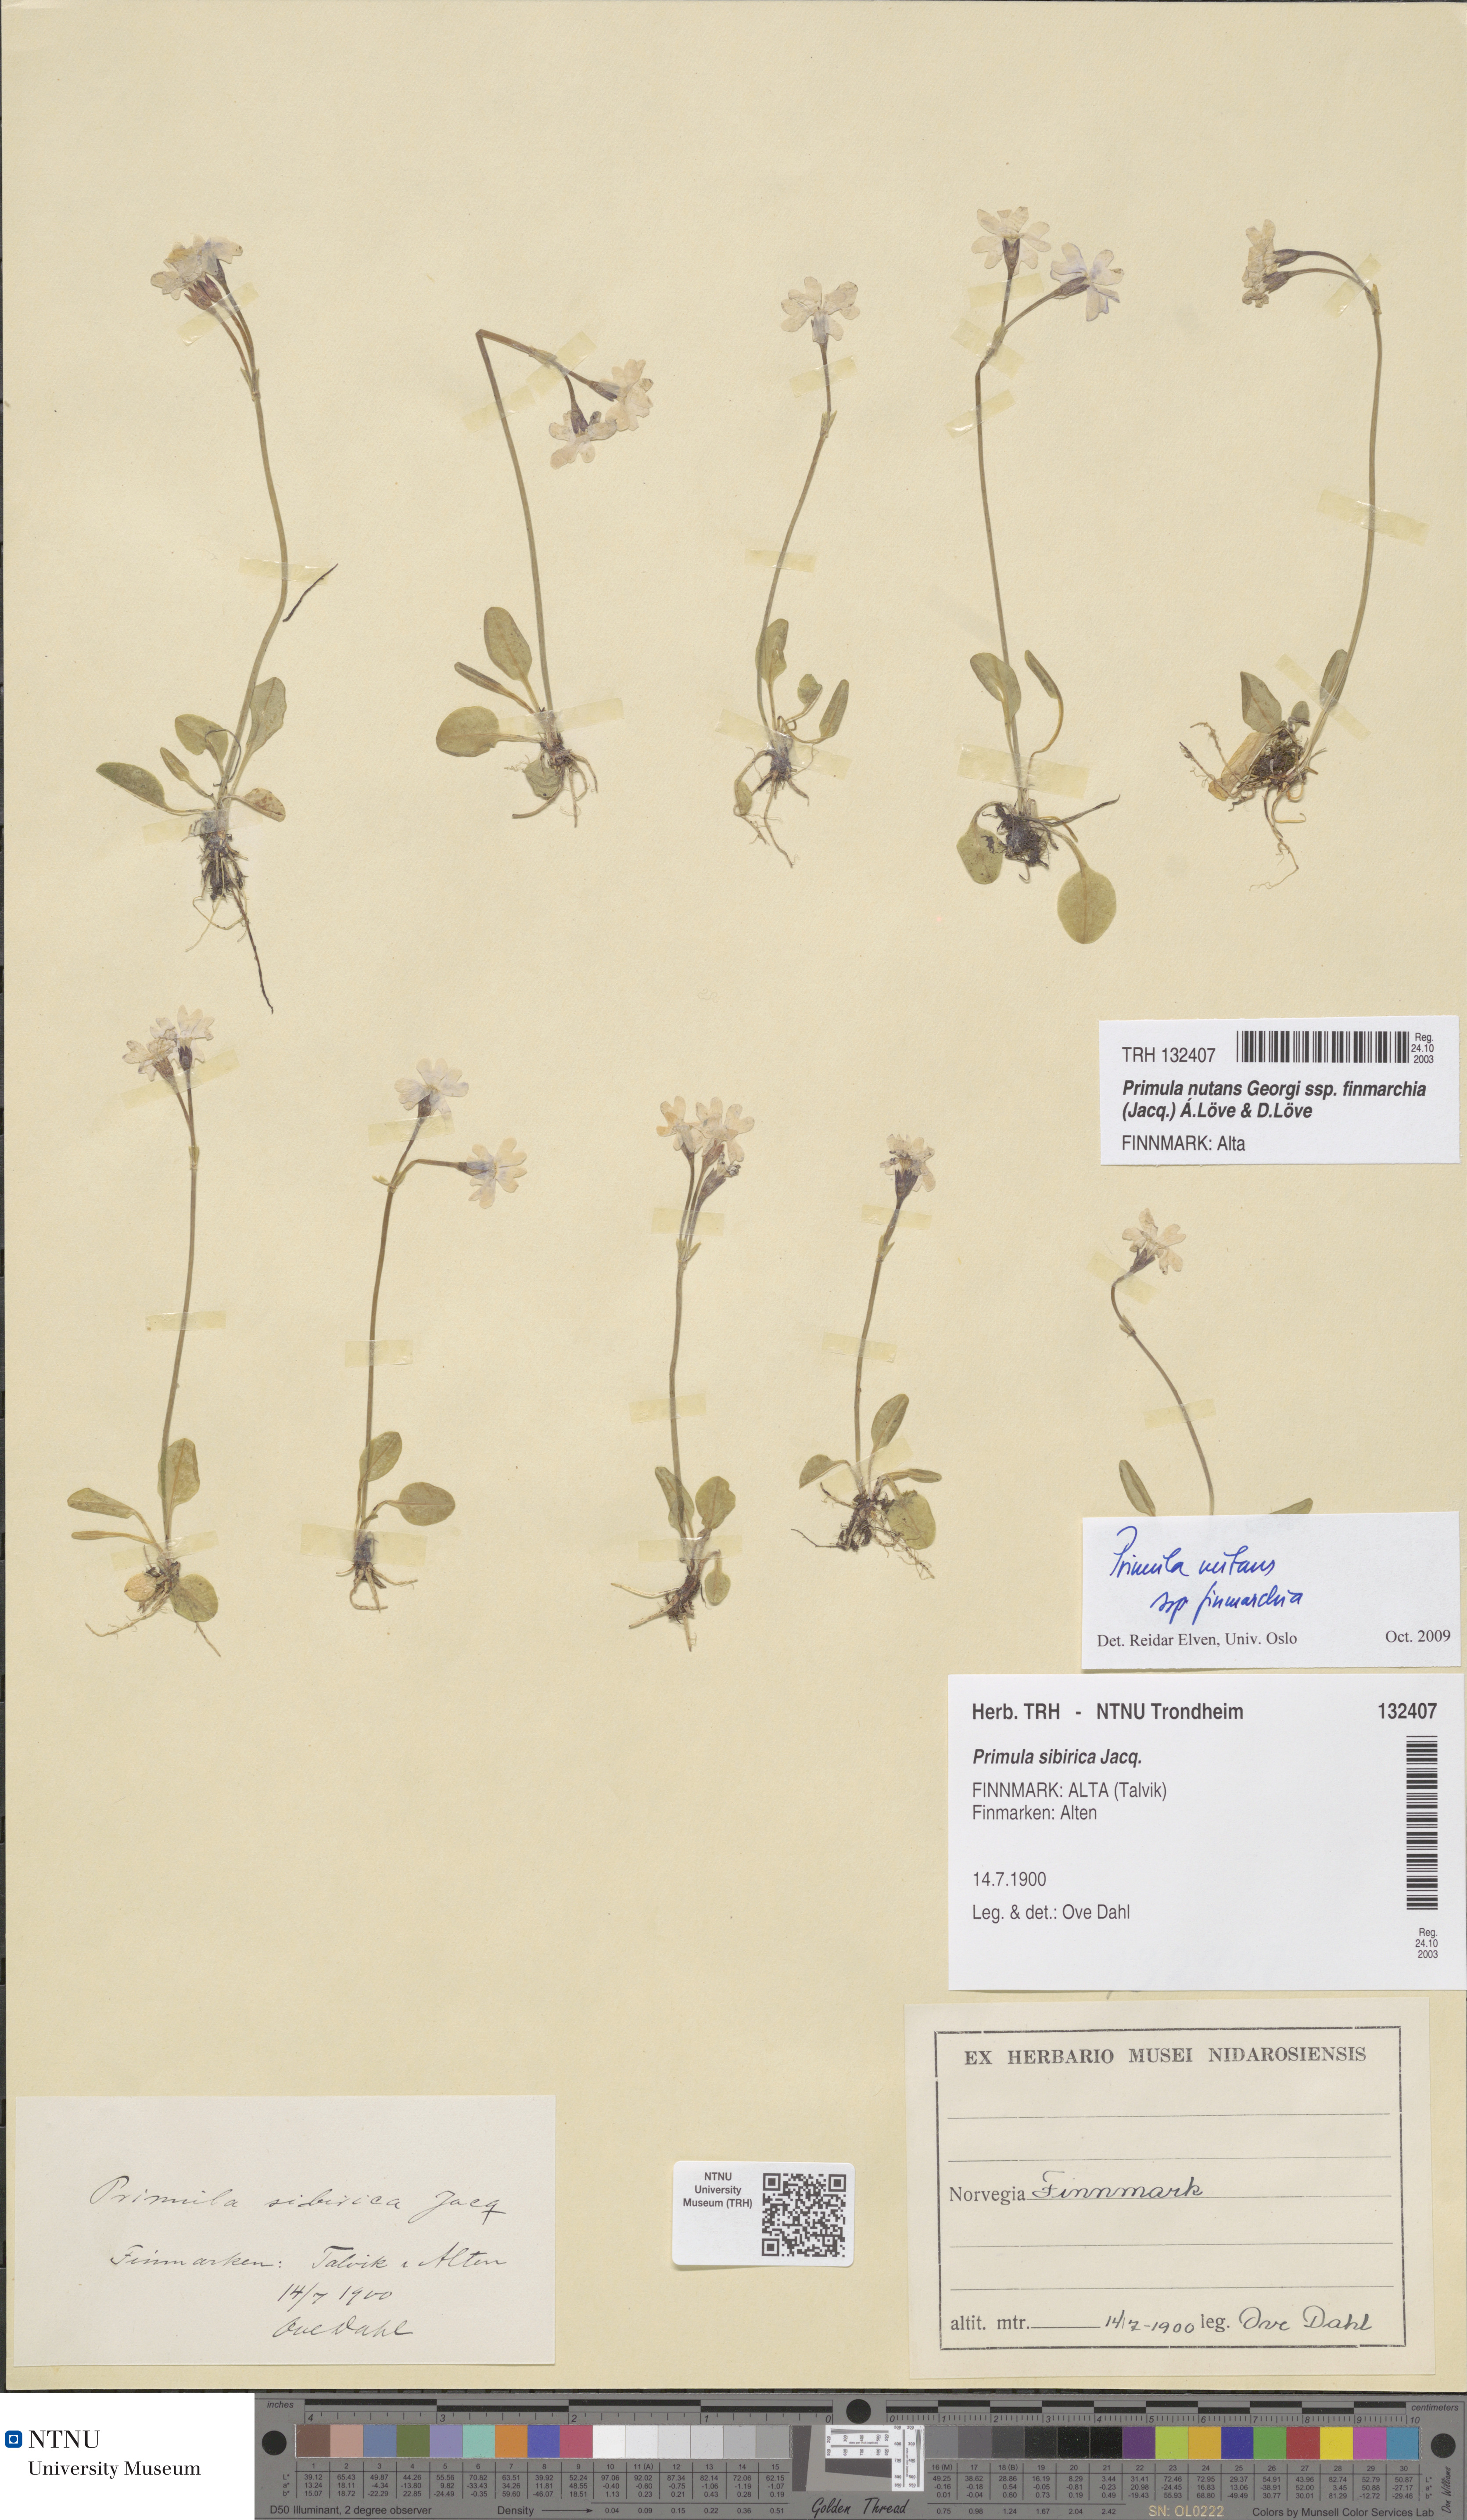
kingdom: Plantae
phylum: Tracheophyta
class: Magnoliopsida
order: Ericales
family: Primulaceae
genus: Primula
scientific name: Primula nutans
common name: Siberian primrose
